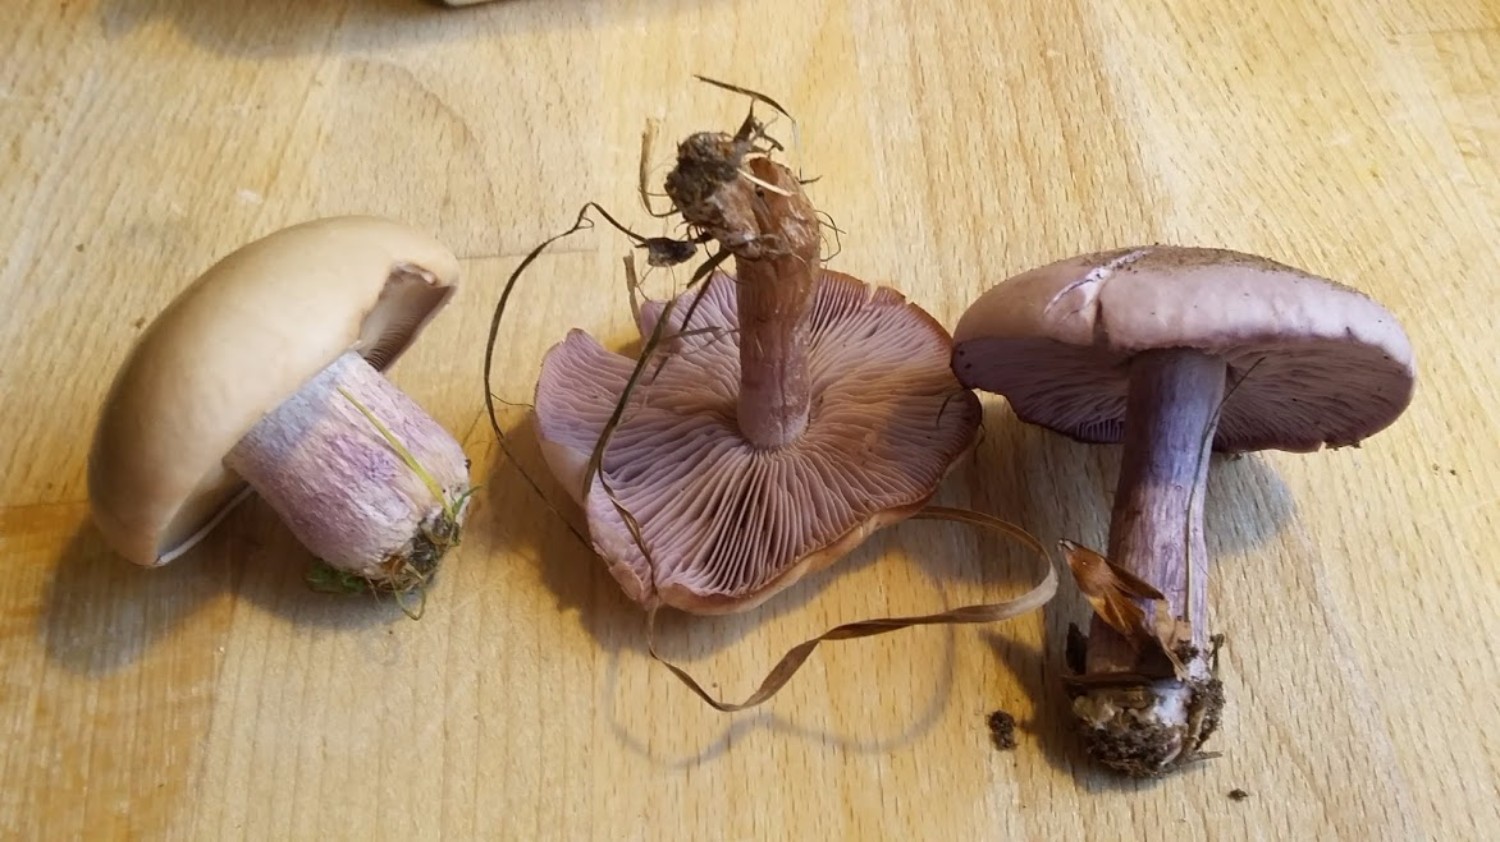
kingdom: Fungi
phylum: Basidiomycota
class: Agaricomycetes
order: Agaricales
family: Tricholomataceae
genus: Lepista
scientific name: Lepista nuda
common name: violet hekseringshat
